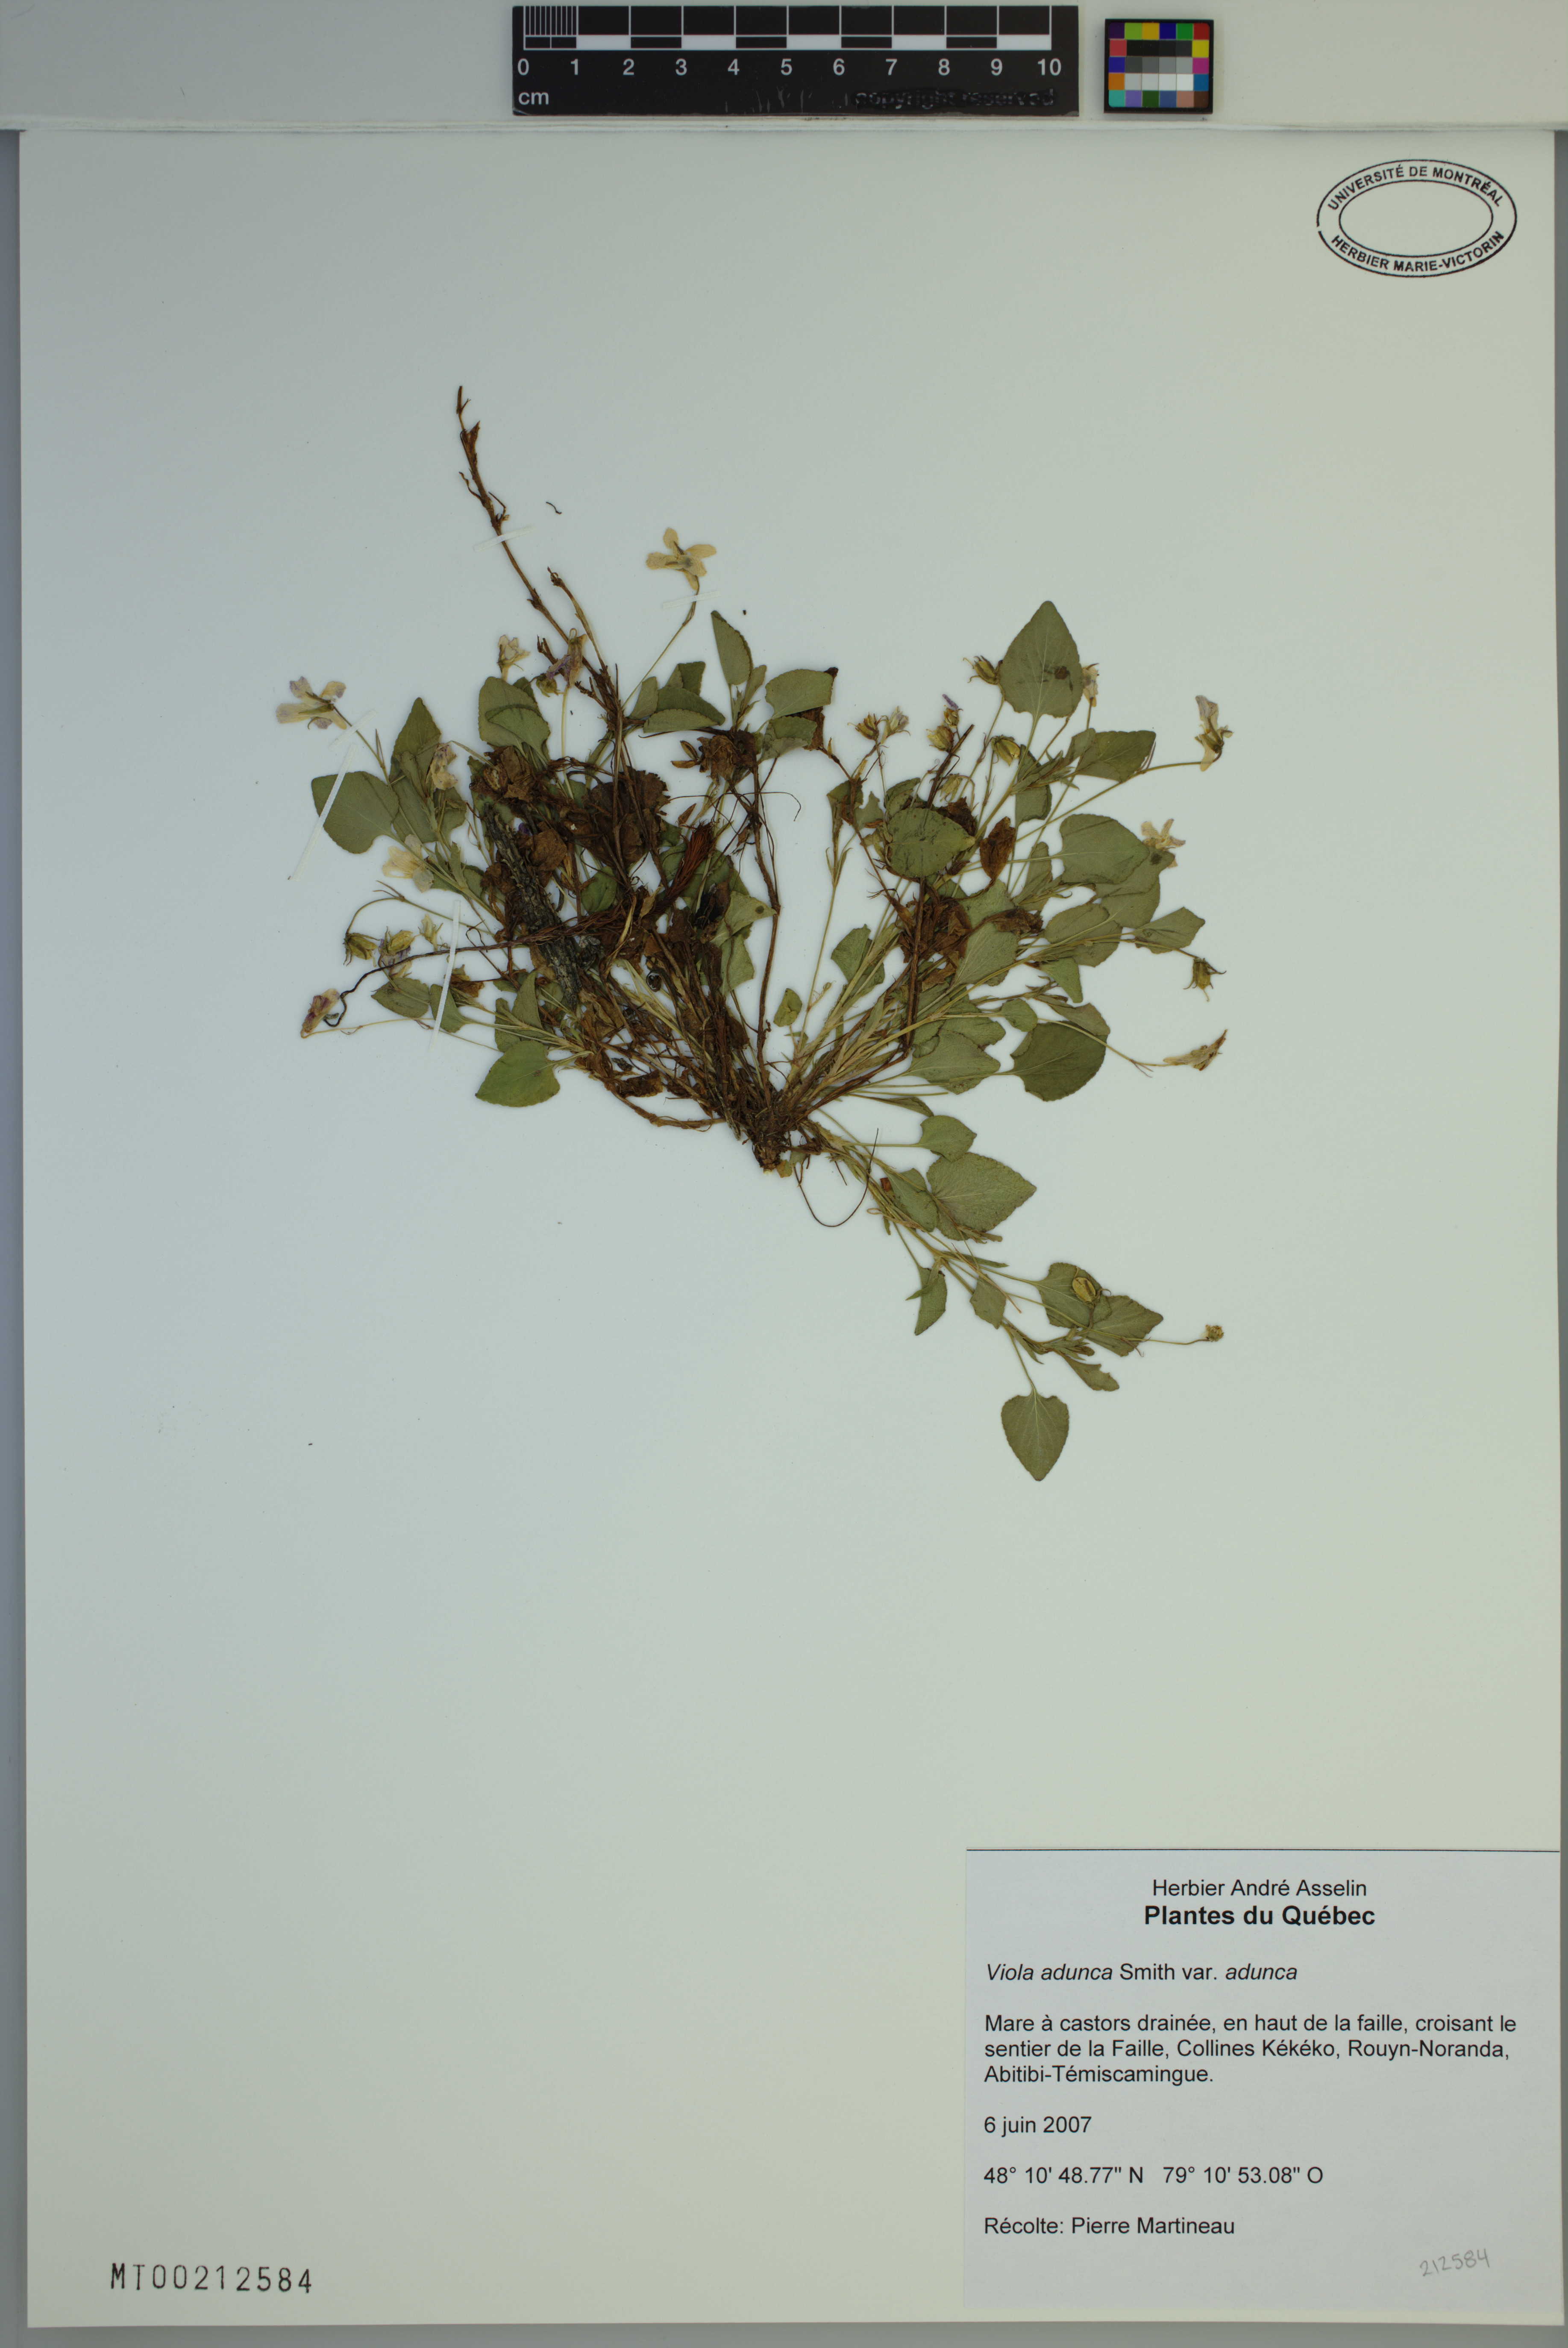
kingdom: Plantae
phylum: Tracheophyta
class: Magnoliopsida
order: Malpighiales
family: Violaceae
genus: Viola
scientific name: Viola adunca
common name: Sand violet
